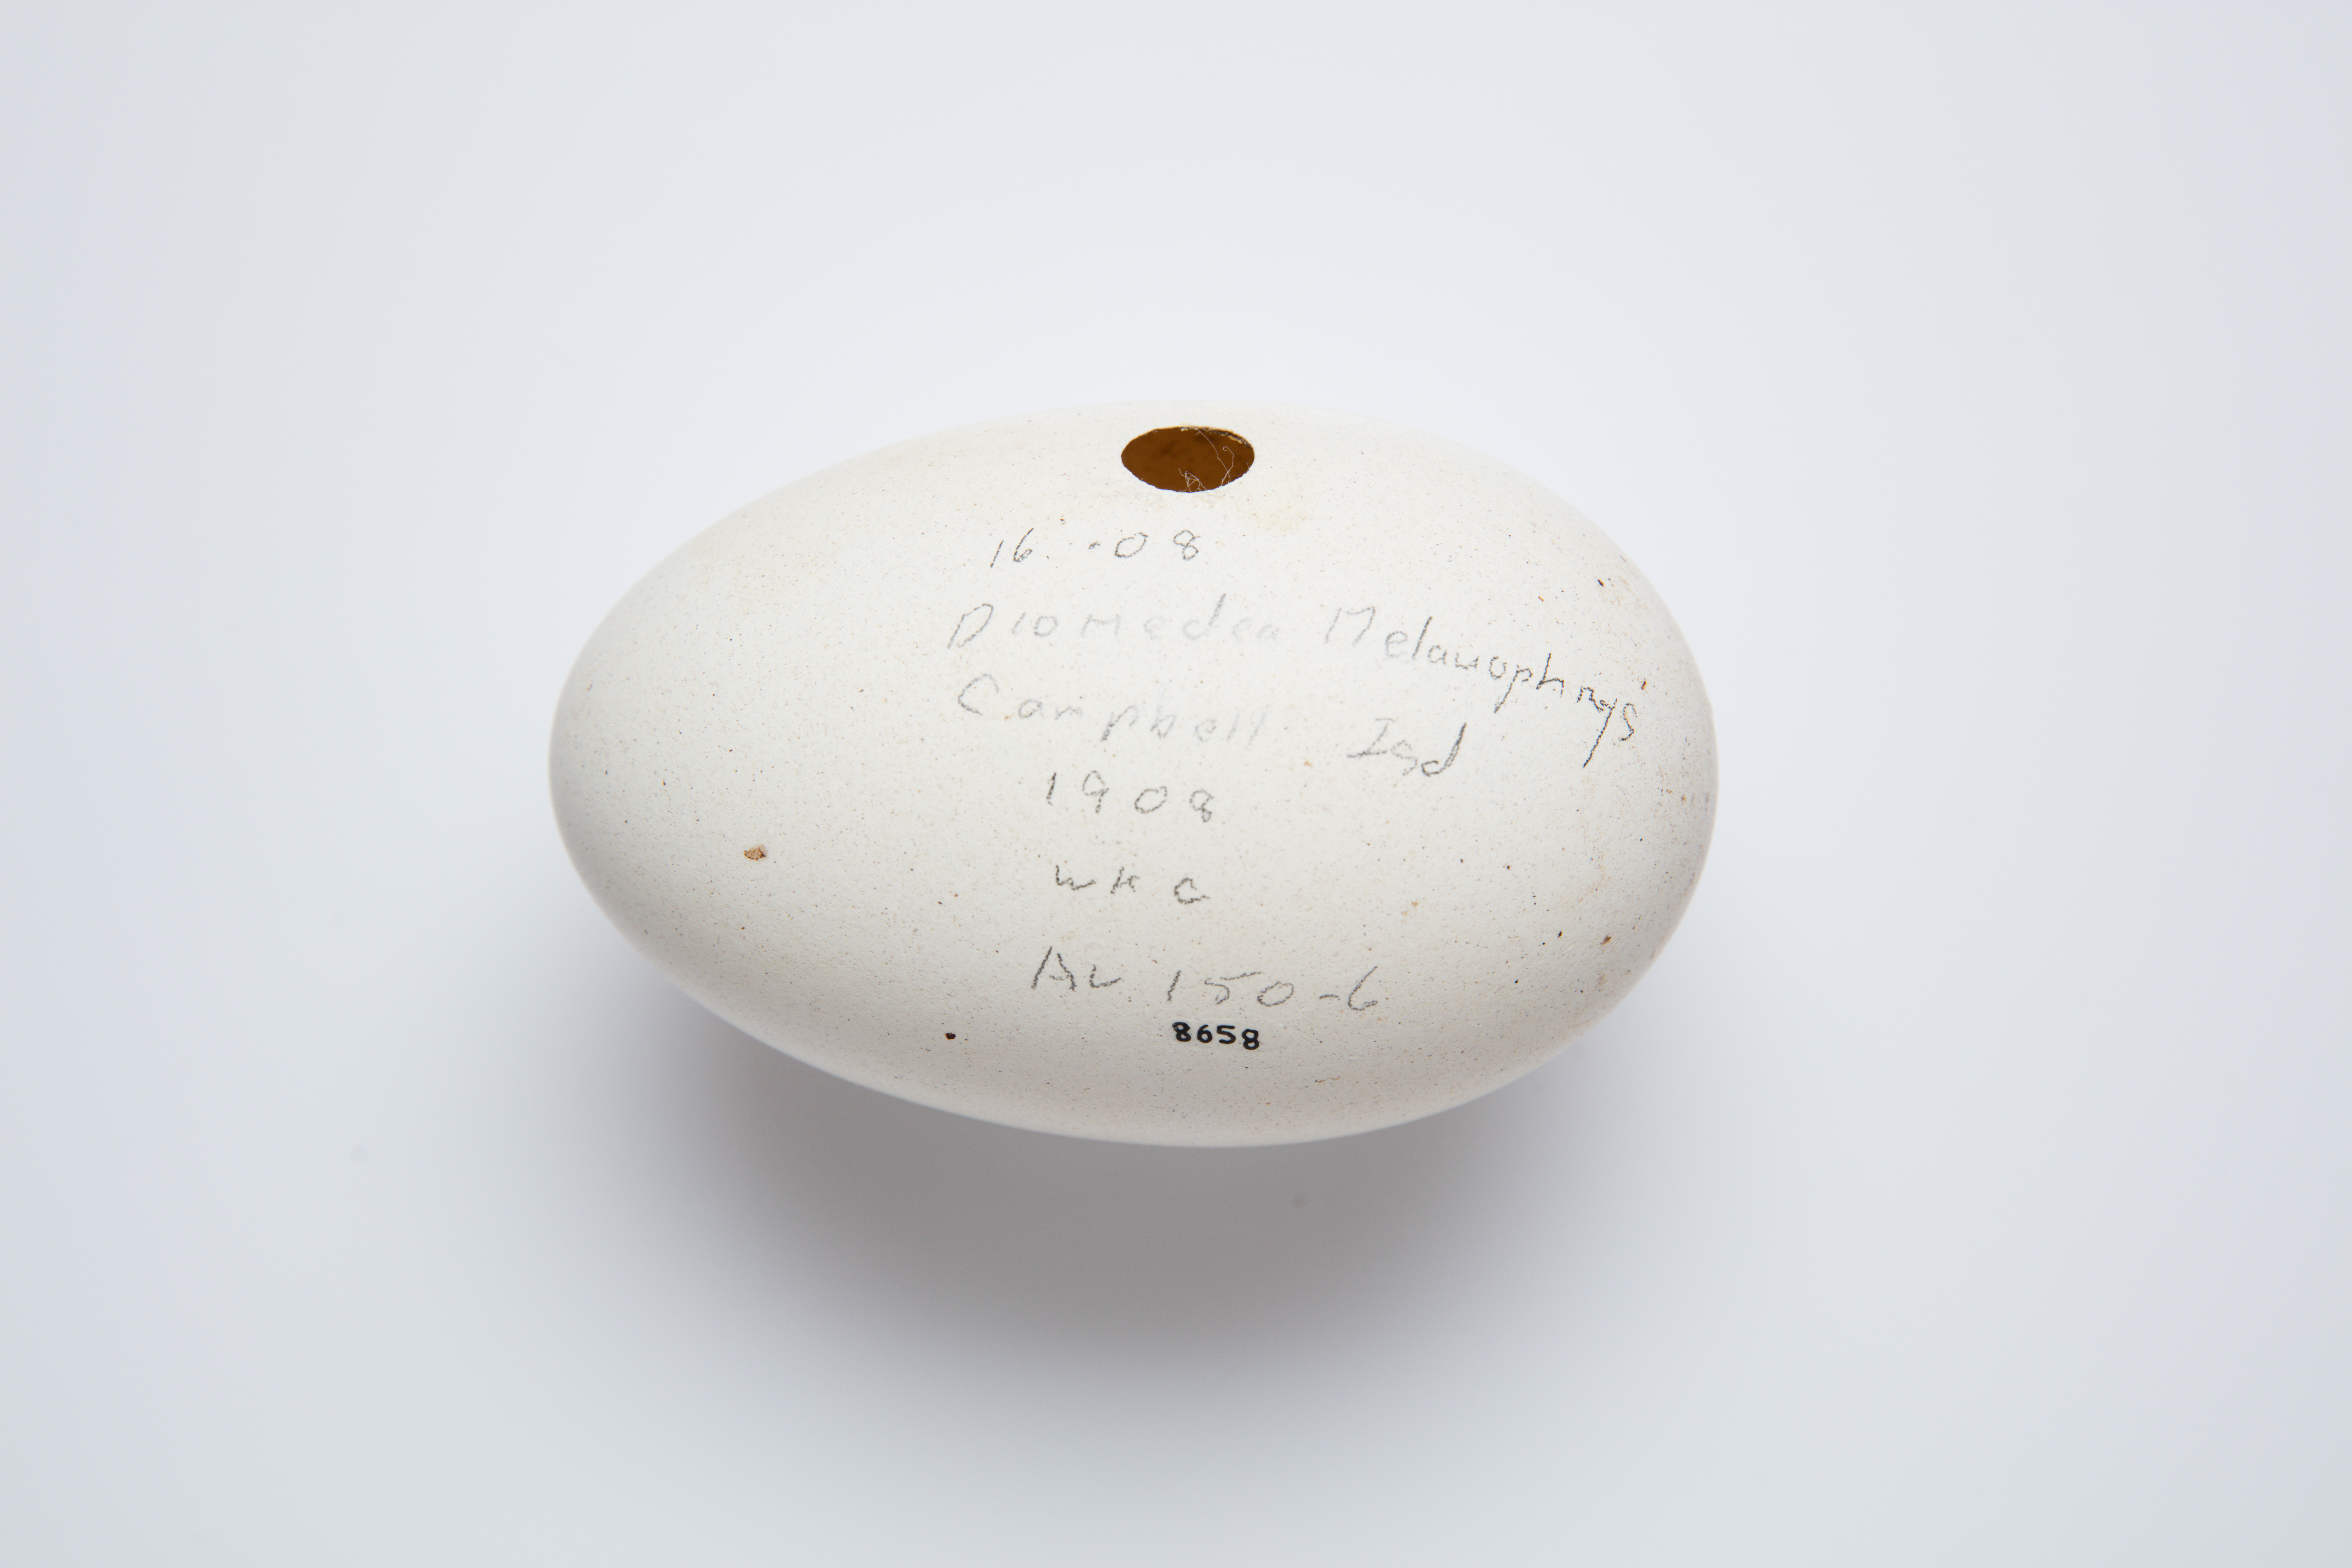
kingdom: Animalia
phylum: Chordata
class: Aves
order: Procellariiformes
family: Diomedeidae
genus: Thalassarche
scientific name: Thalassarche melanophris
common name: Black-browed albatross
